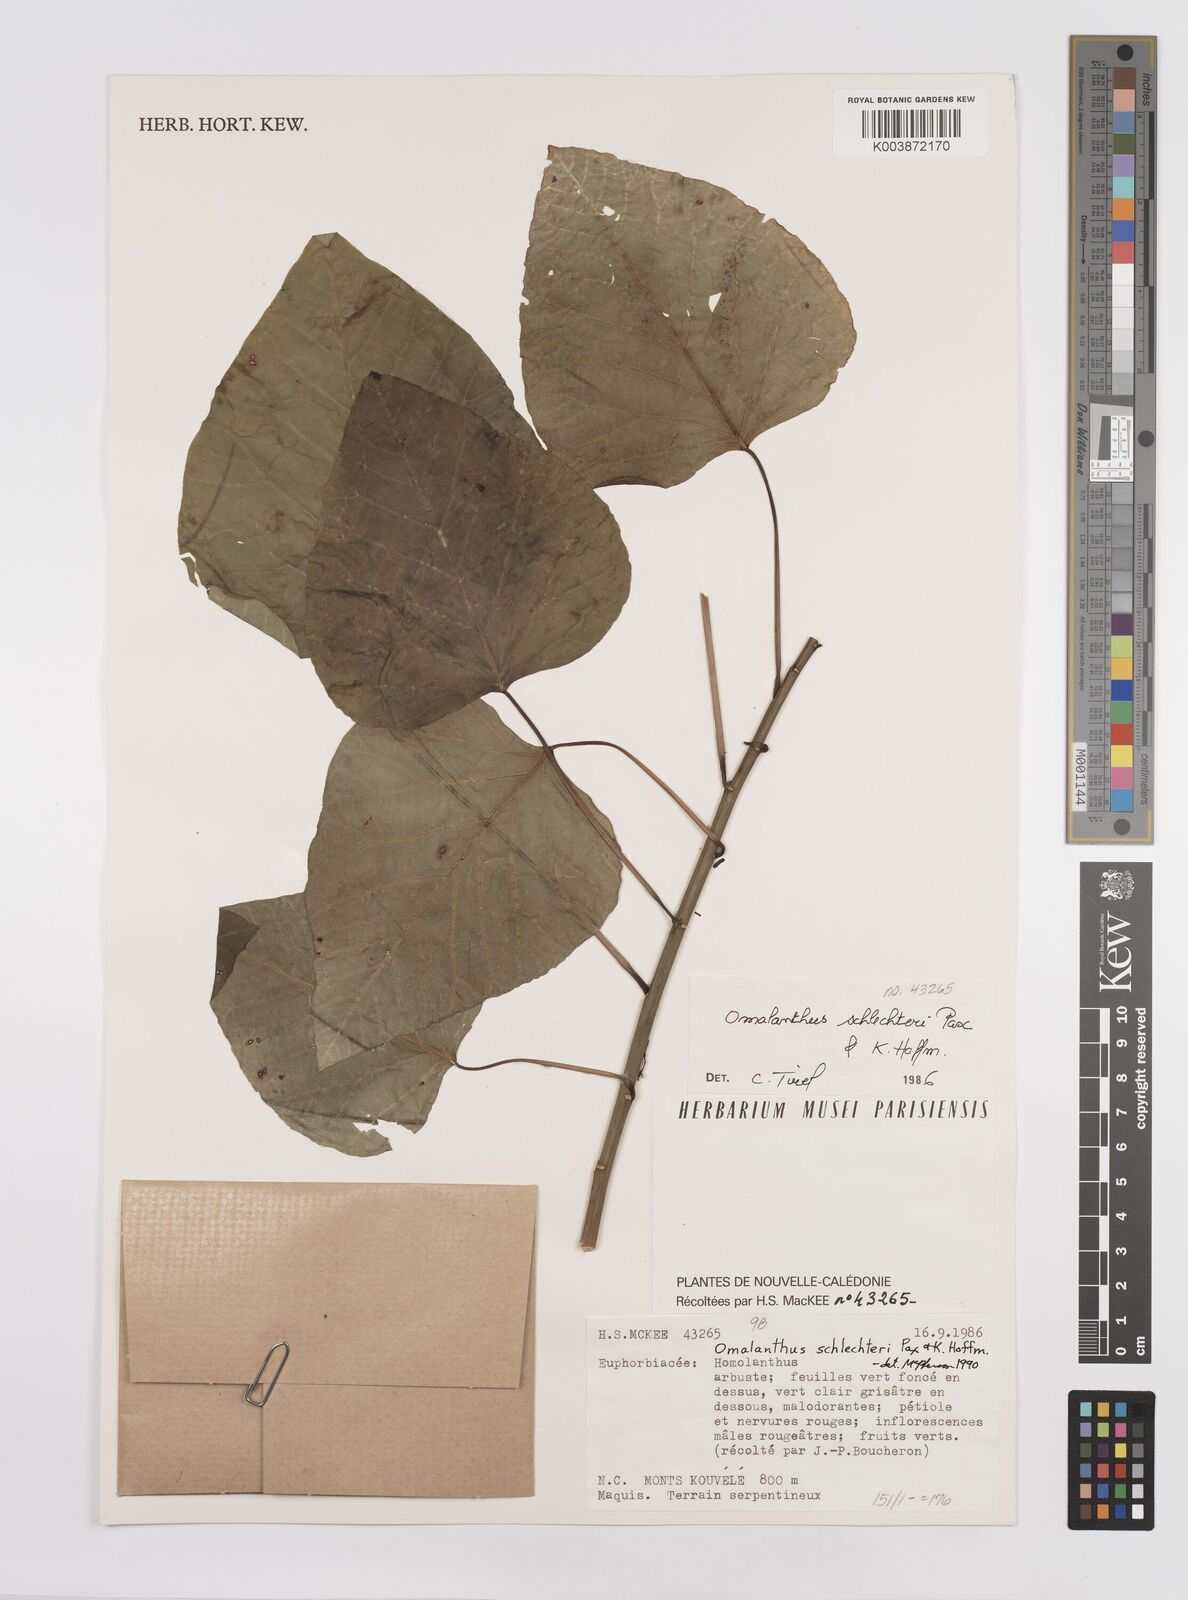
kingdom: Plantae
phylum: Tracheophyta
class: Magnoliopsida
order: Malpighiales
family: Euphorbiaceae
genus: Homalanthus
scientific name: Homalanthus schlechteri
